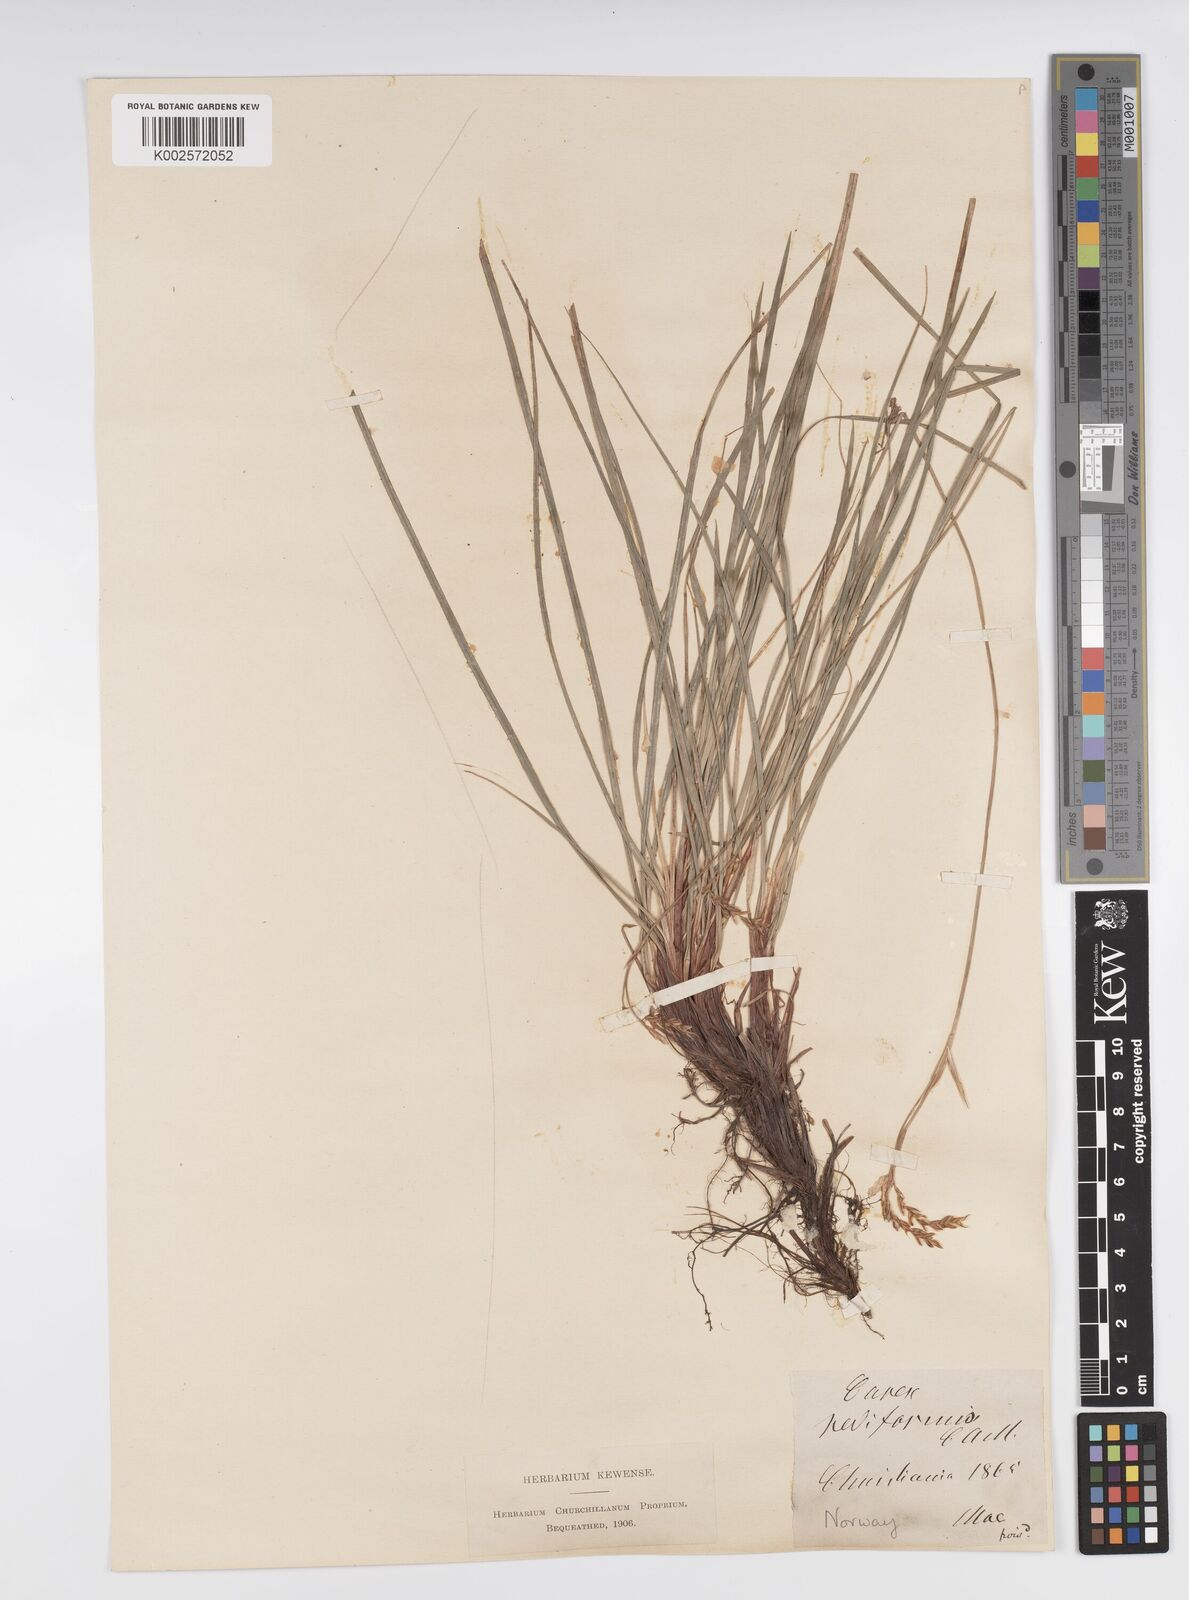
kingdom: Plantae
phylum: Tracheophyta
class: Liliopsida
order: Poales
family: Cyperaceae
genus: Carex
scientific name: Carex pediformis
